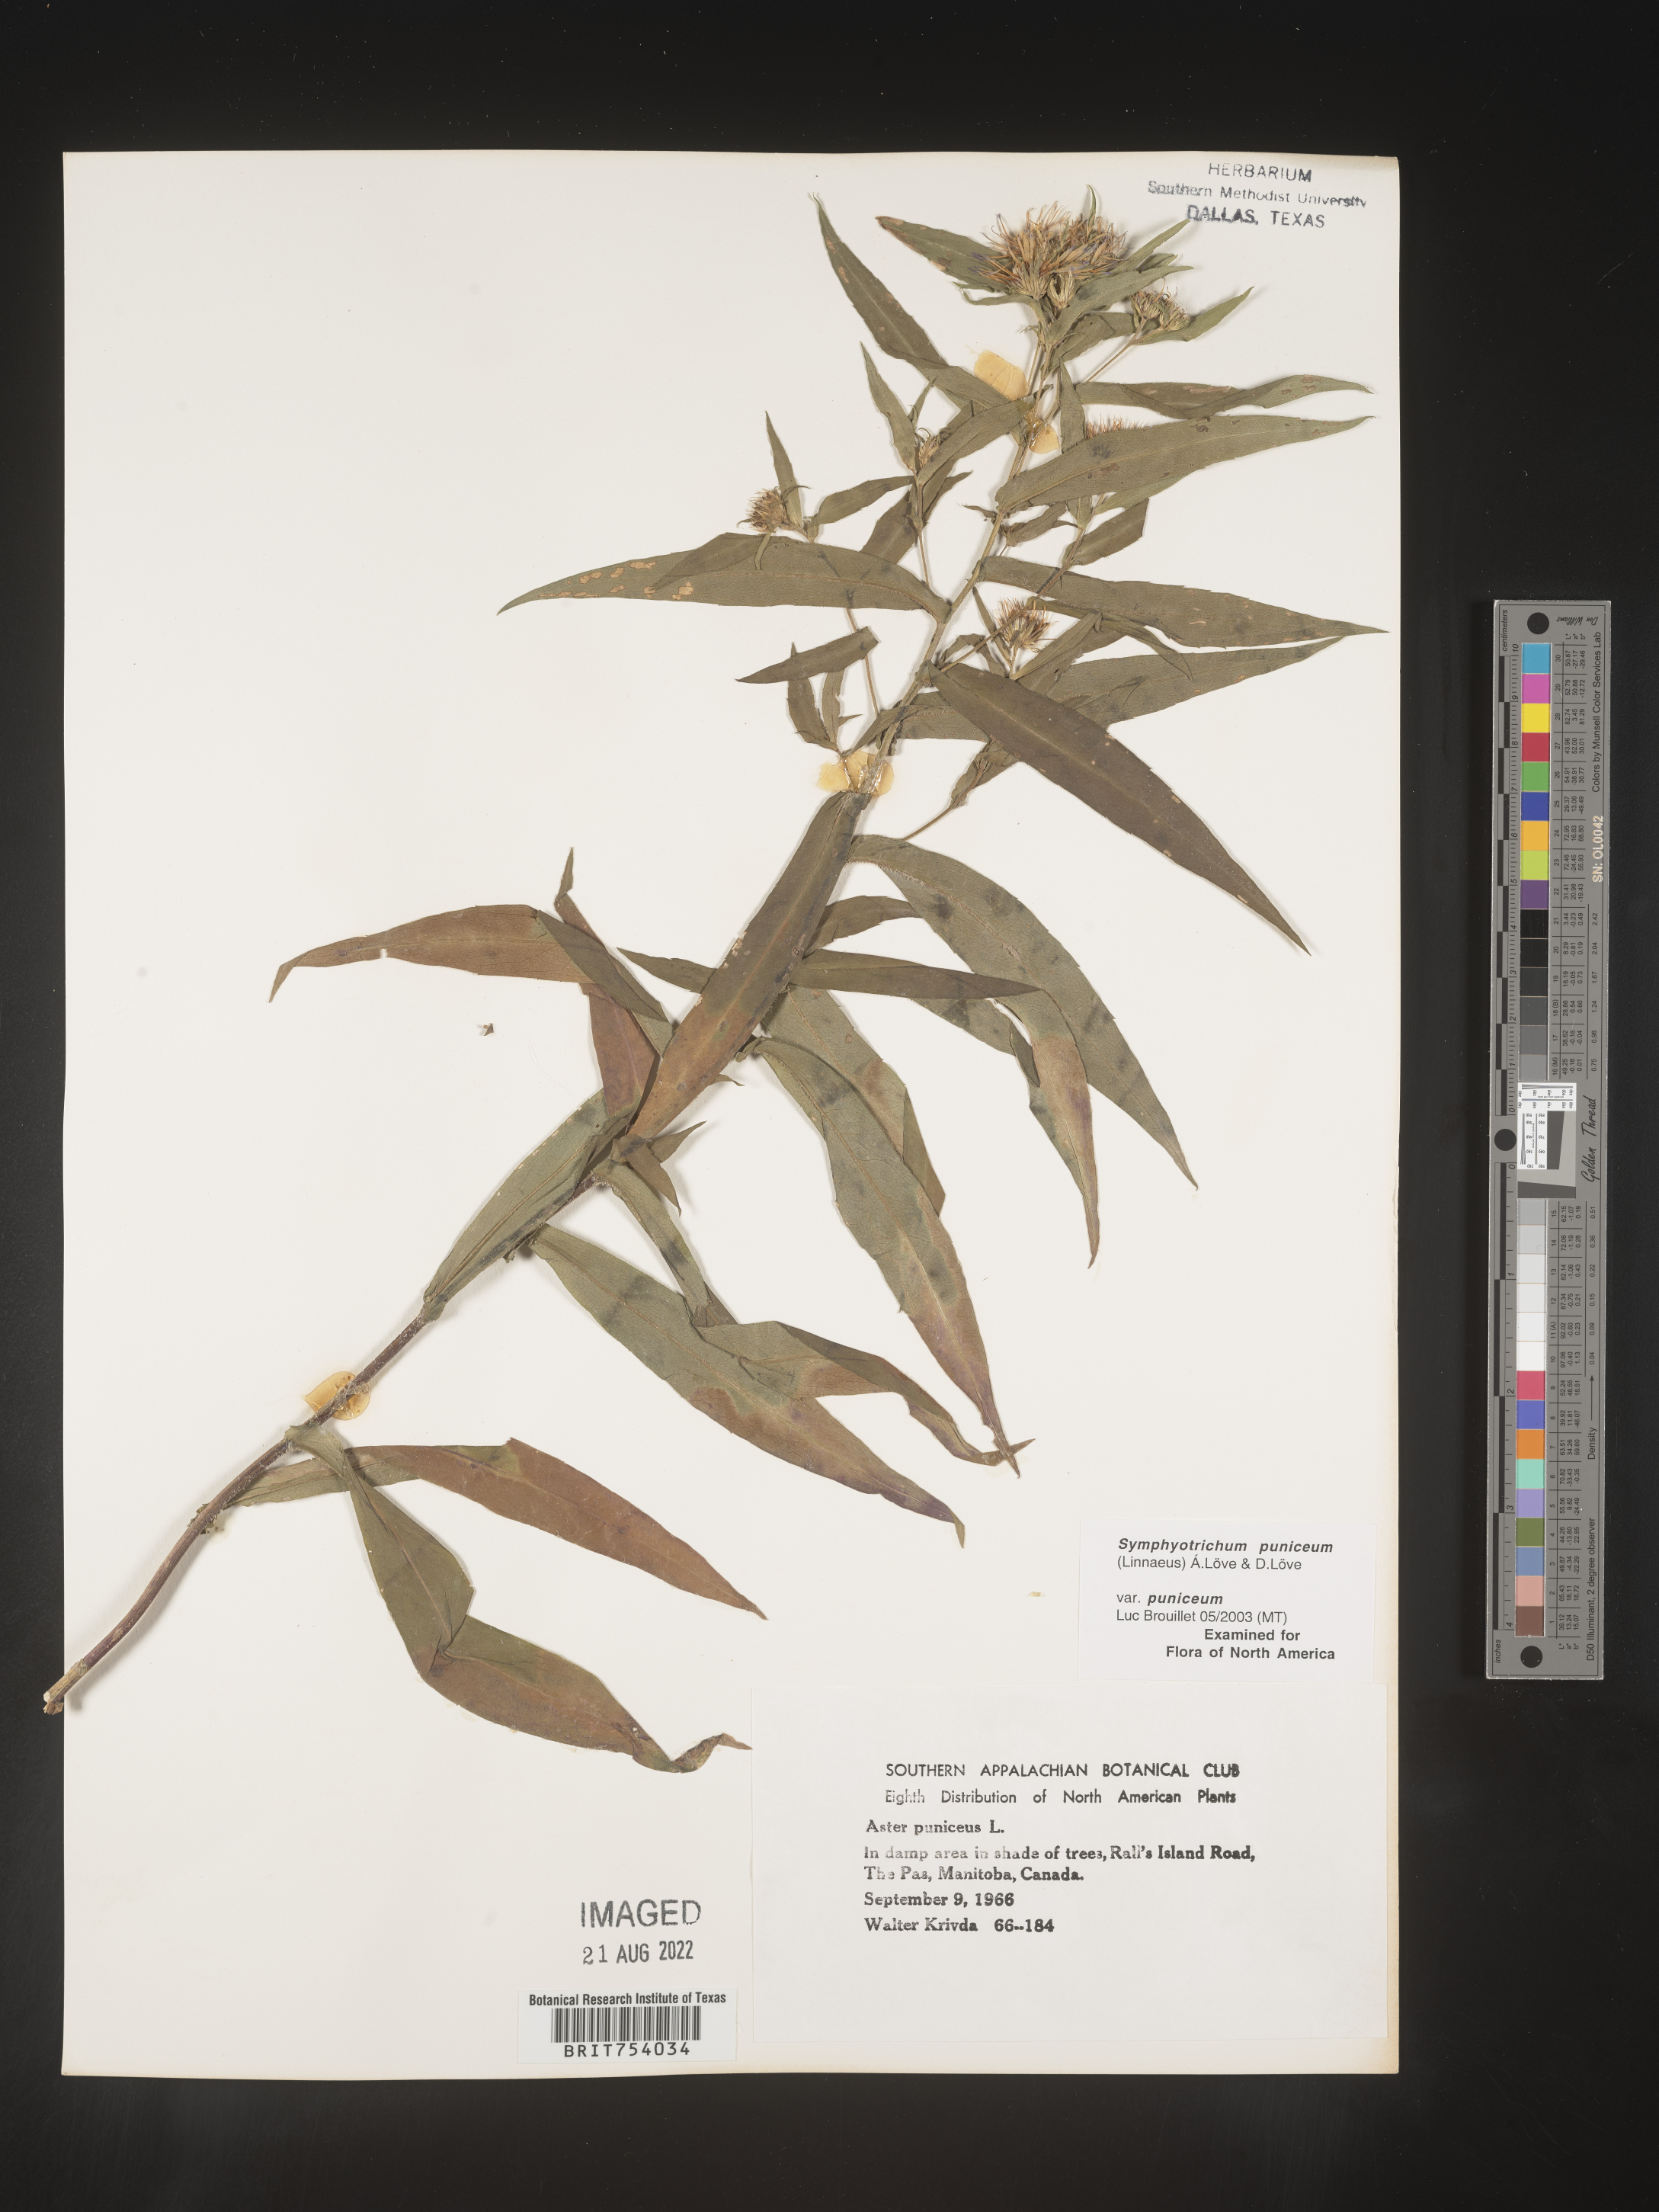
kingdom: Plantae
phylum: Tracheophyta
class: Magnoliopsida
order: Asterales
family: Asteraceae
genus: Symphyotrichum
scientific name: Symphyotrichum puniceum
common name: Bog aster
